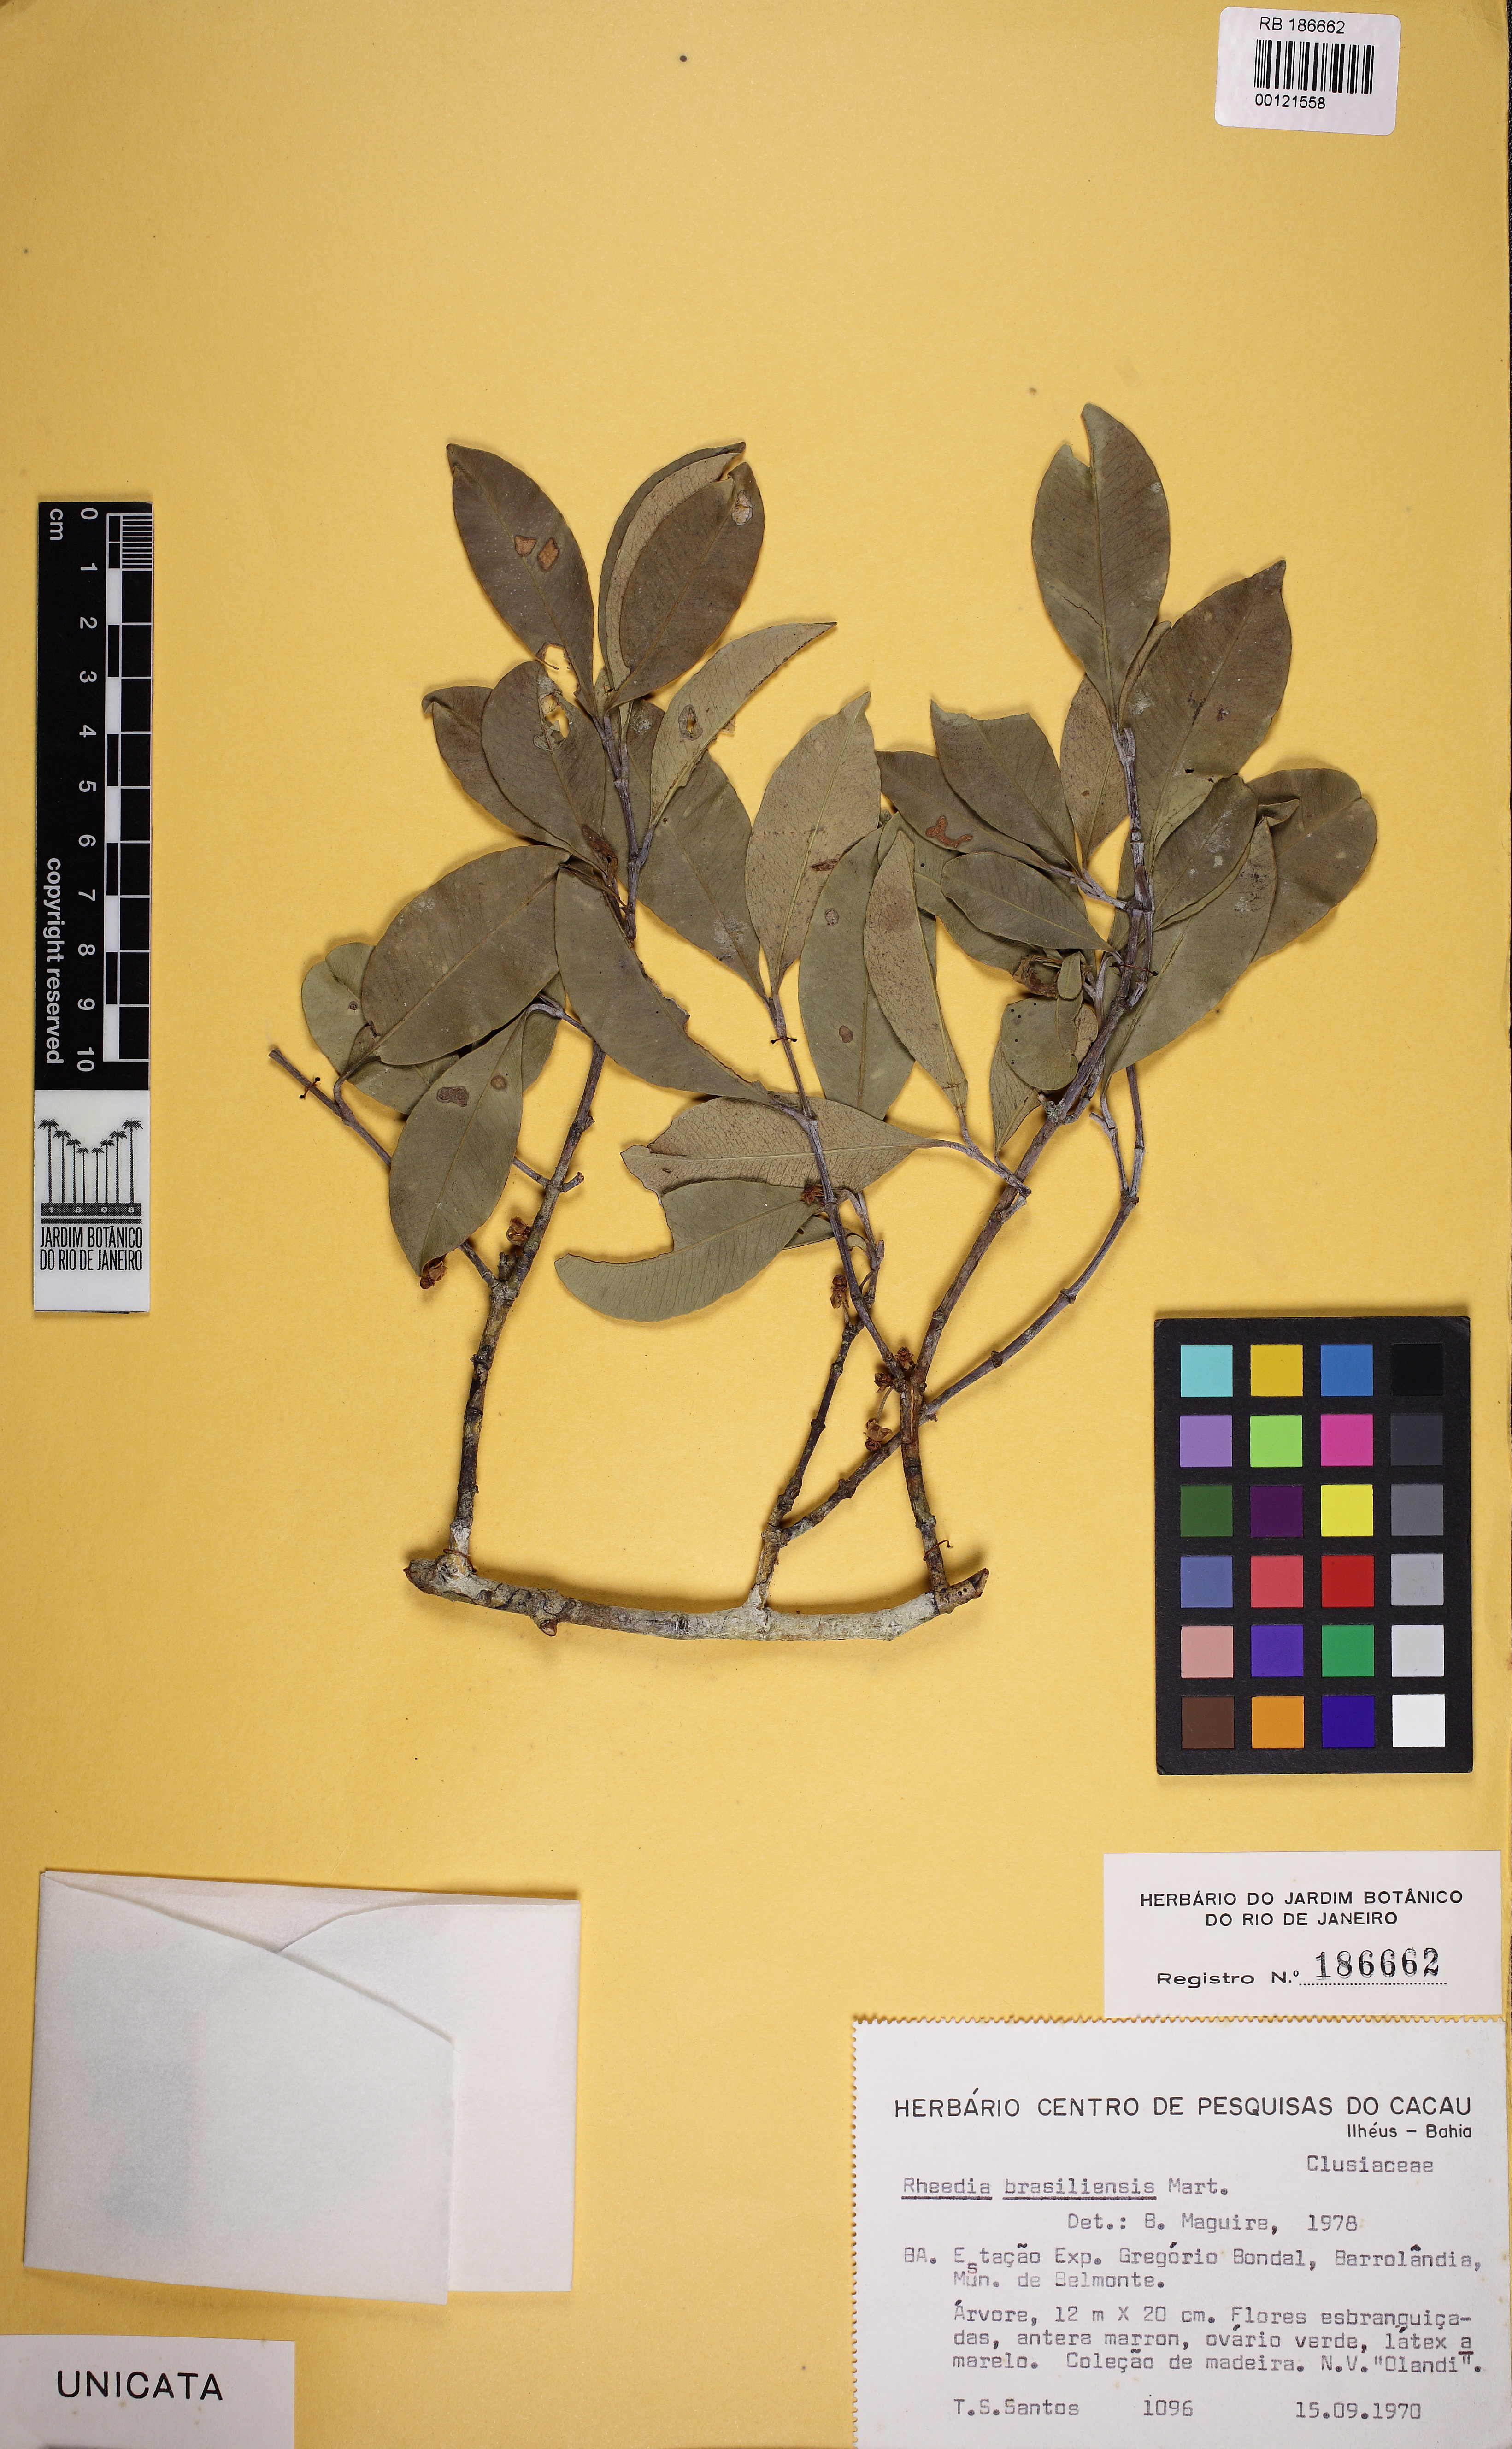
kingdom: Plantae
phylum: Tracheophyta
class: Magnoliopsida
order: Malpighiales
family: Clusiaceae
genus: Garcinia
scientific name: Garcinia gardneriana
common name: Achacha
